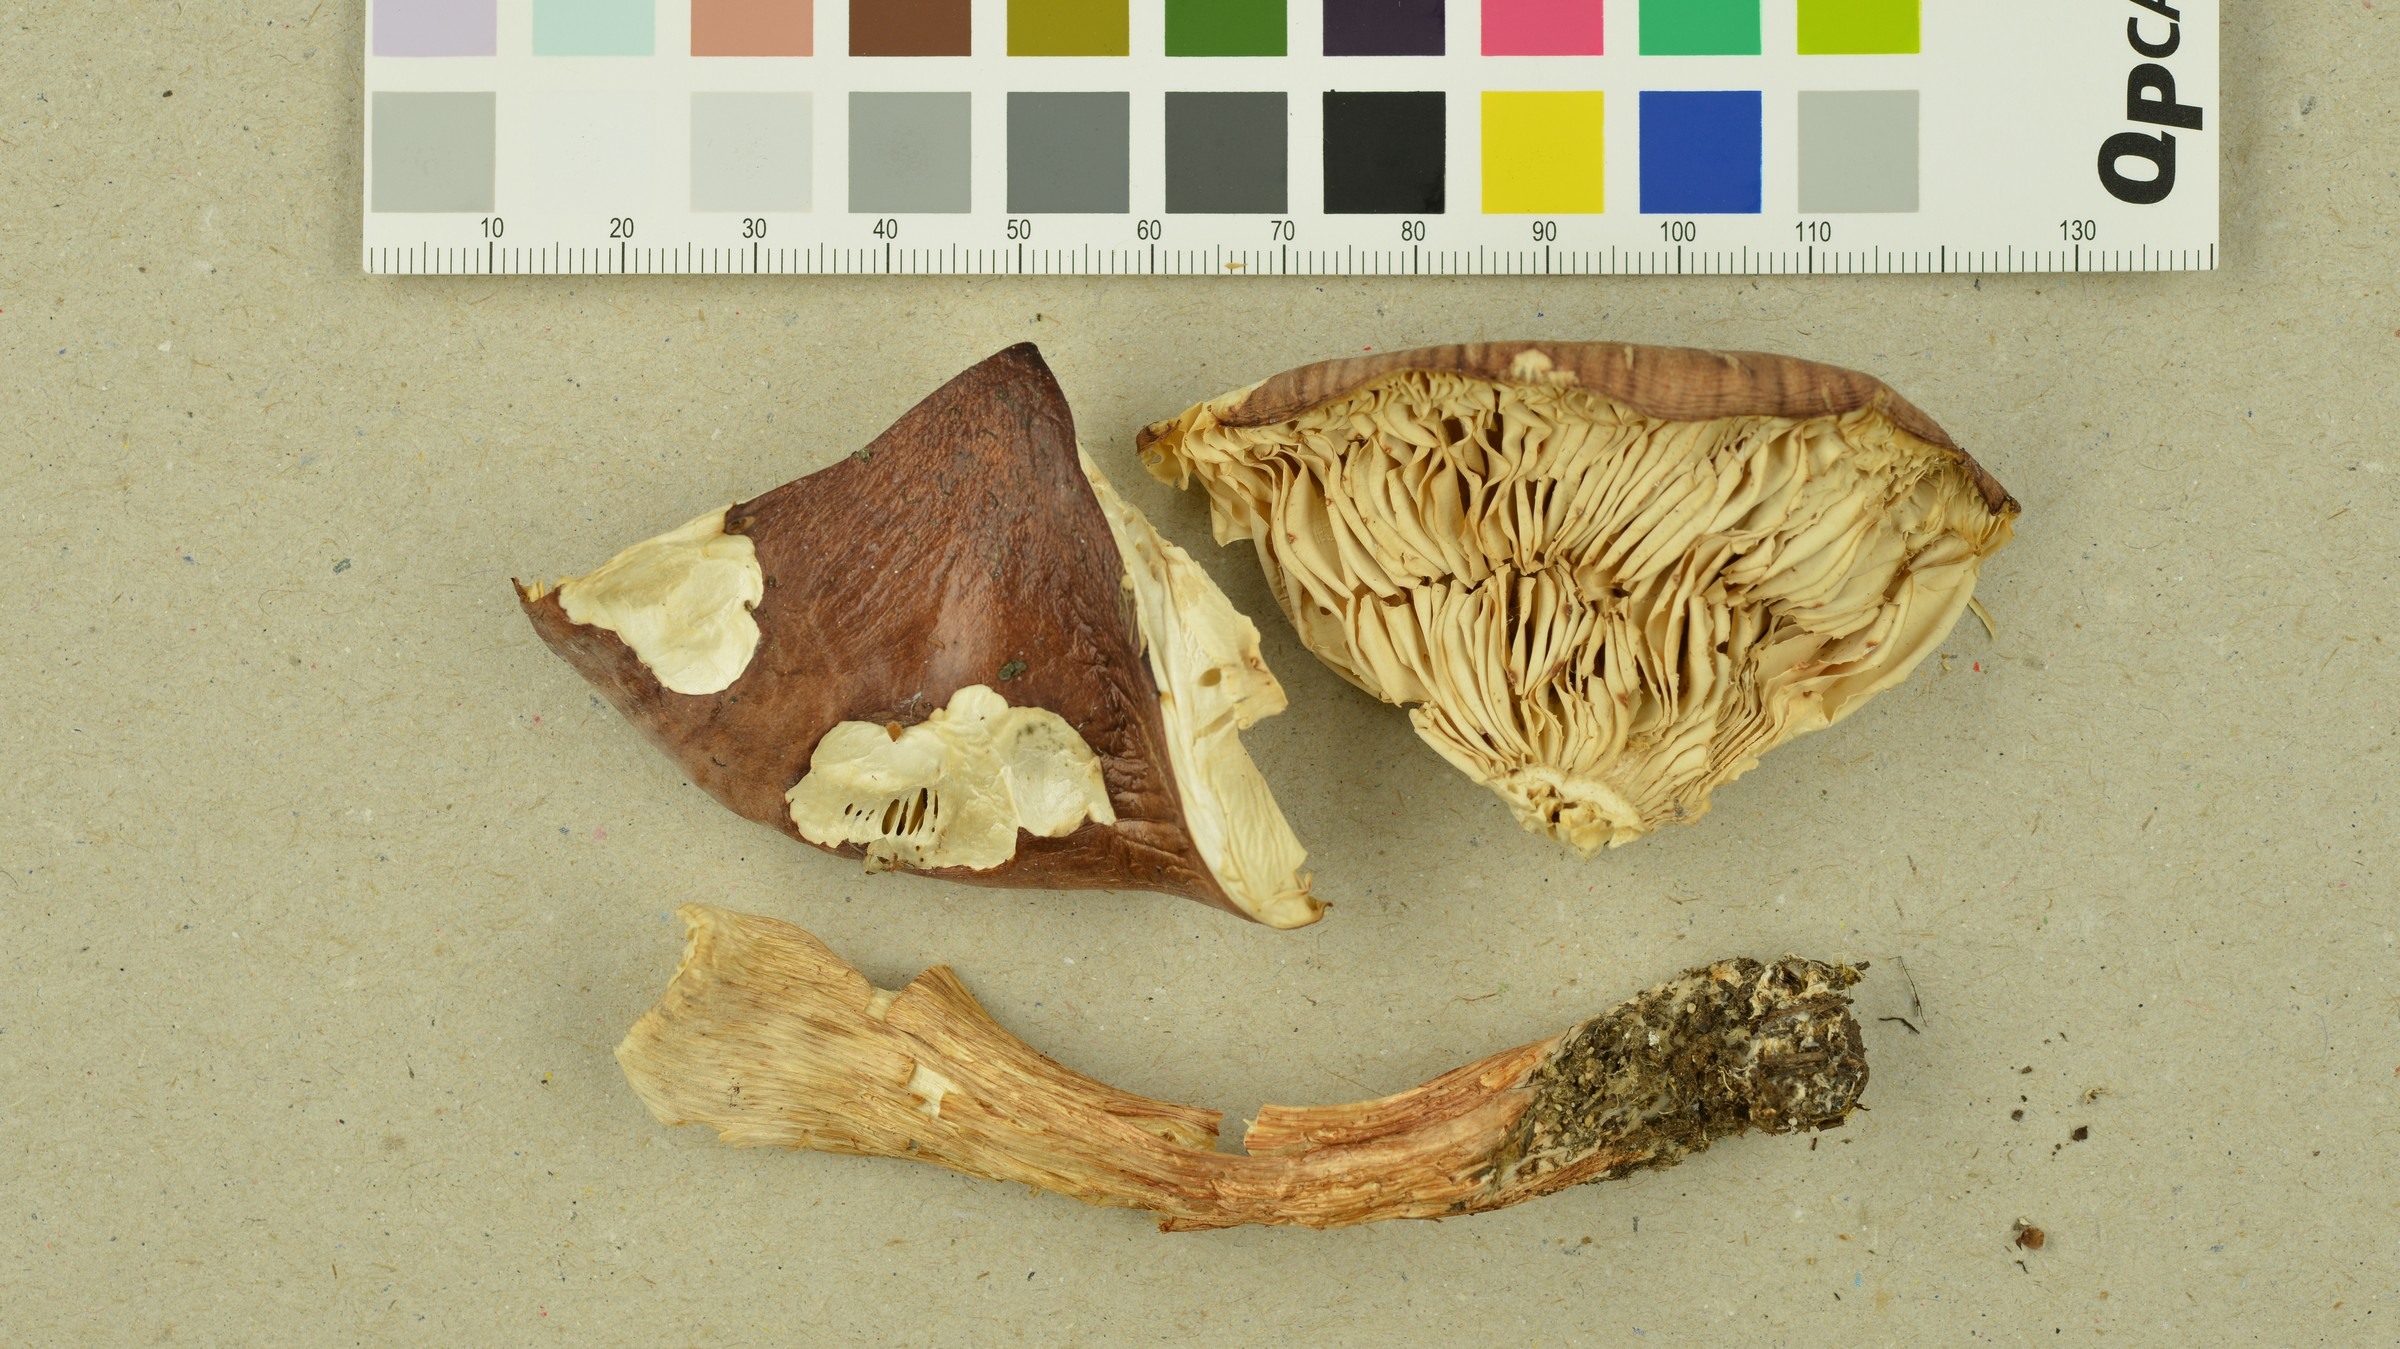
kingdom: Fungi
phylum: Basidiomycota
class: Agaricomycetes
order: Agaricales
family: Tricholomataceae
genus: Tricholoma
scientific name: Tricholoma stans
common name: Upright knight
